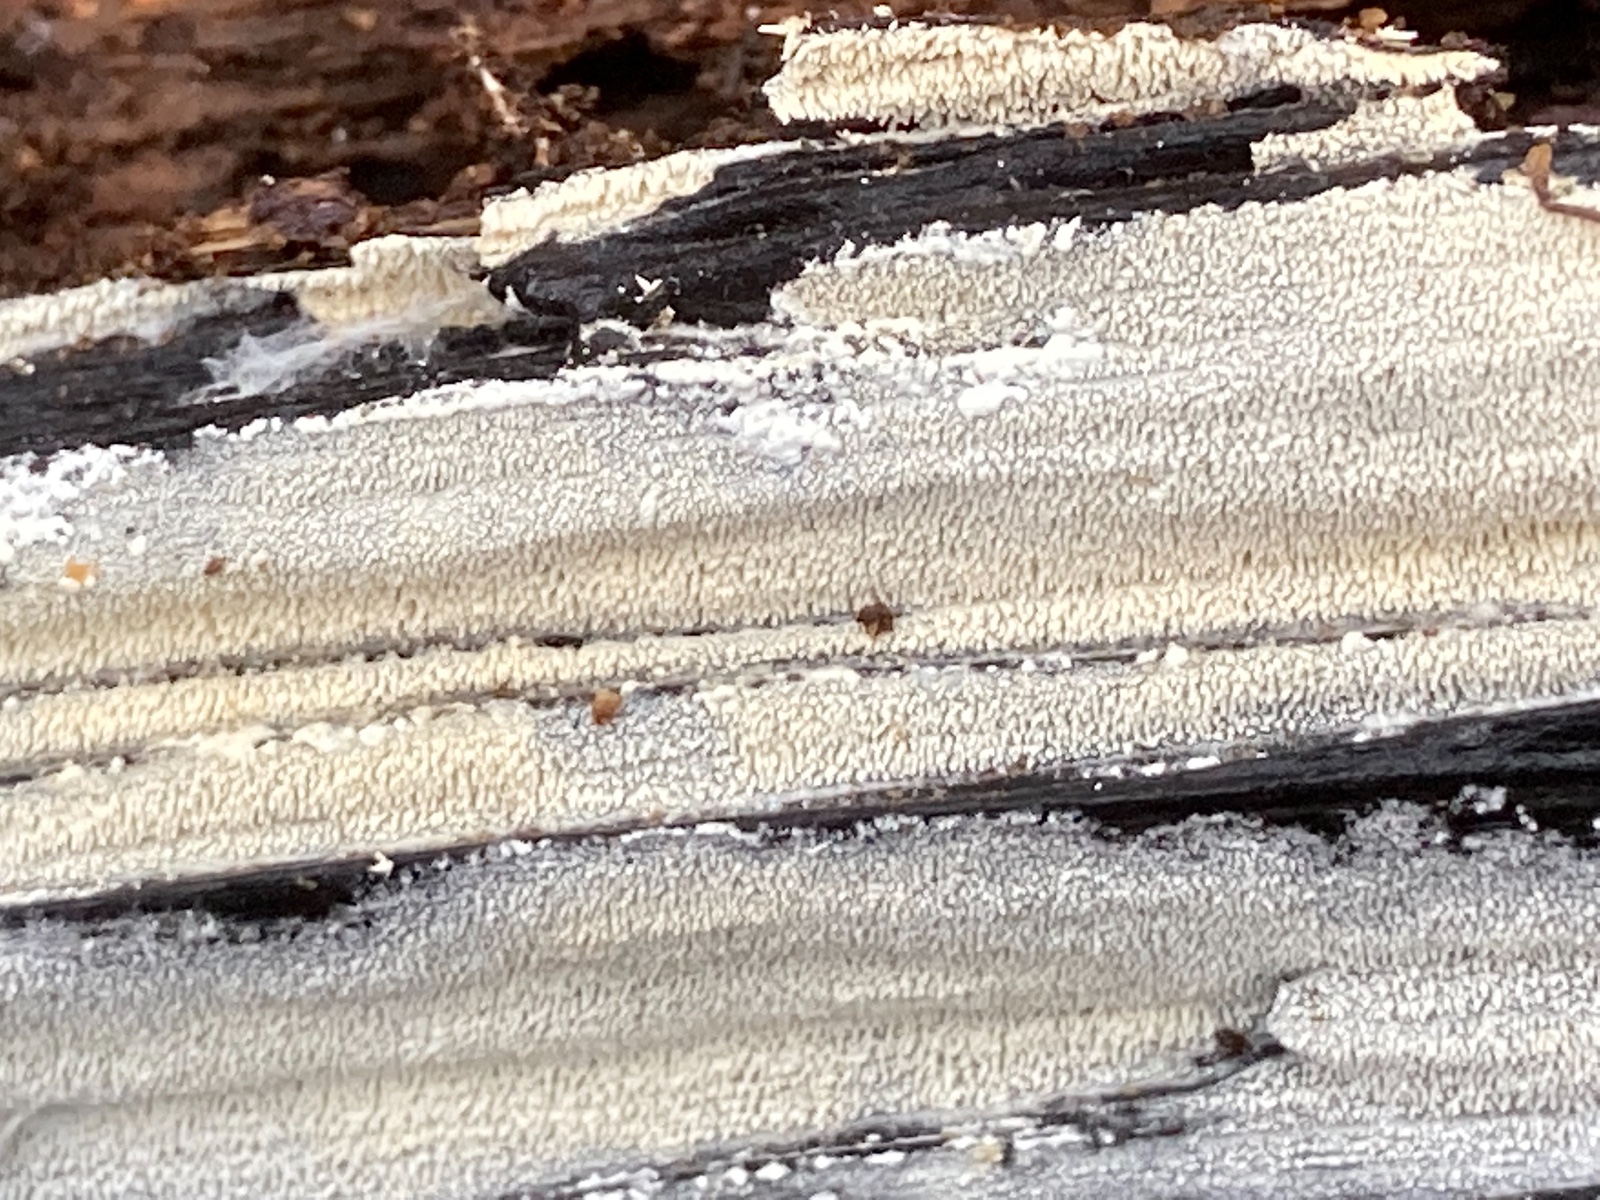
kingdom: Fungi
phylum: Basidiomycota
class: Agaricomycetes
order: Trechisporales
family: Sistotremataceae
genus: Trechispora
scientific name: Trechispora stevensonii
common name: støvende vathinde
